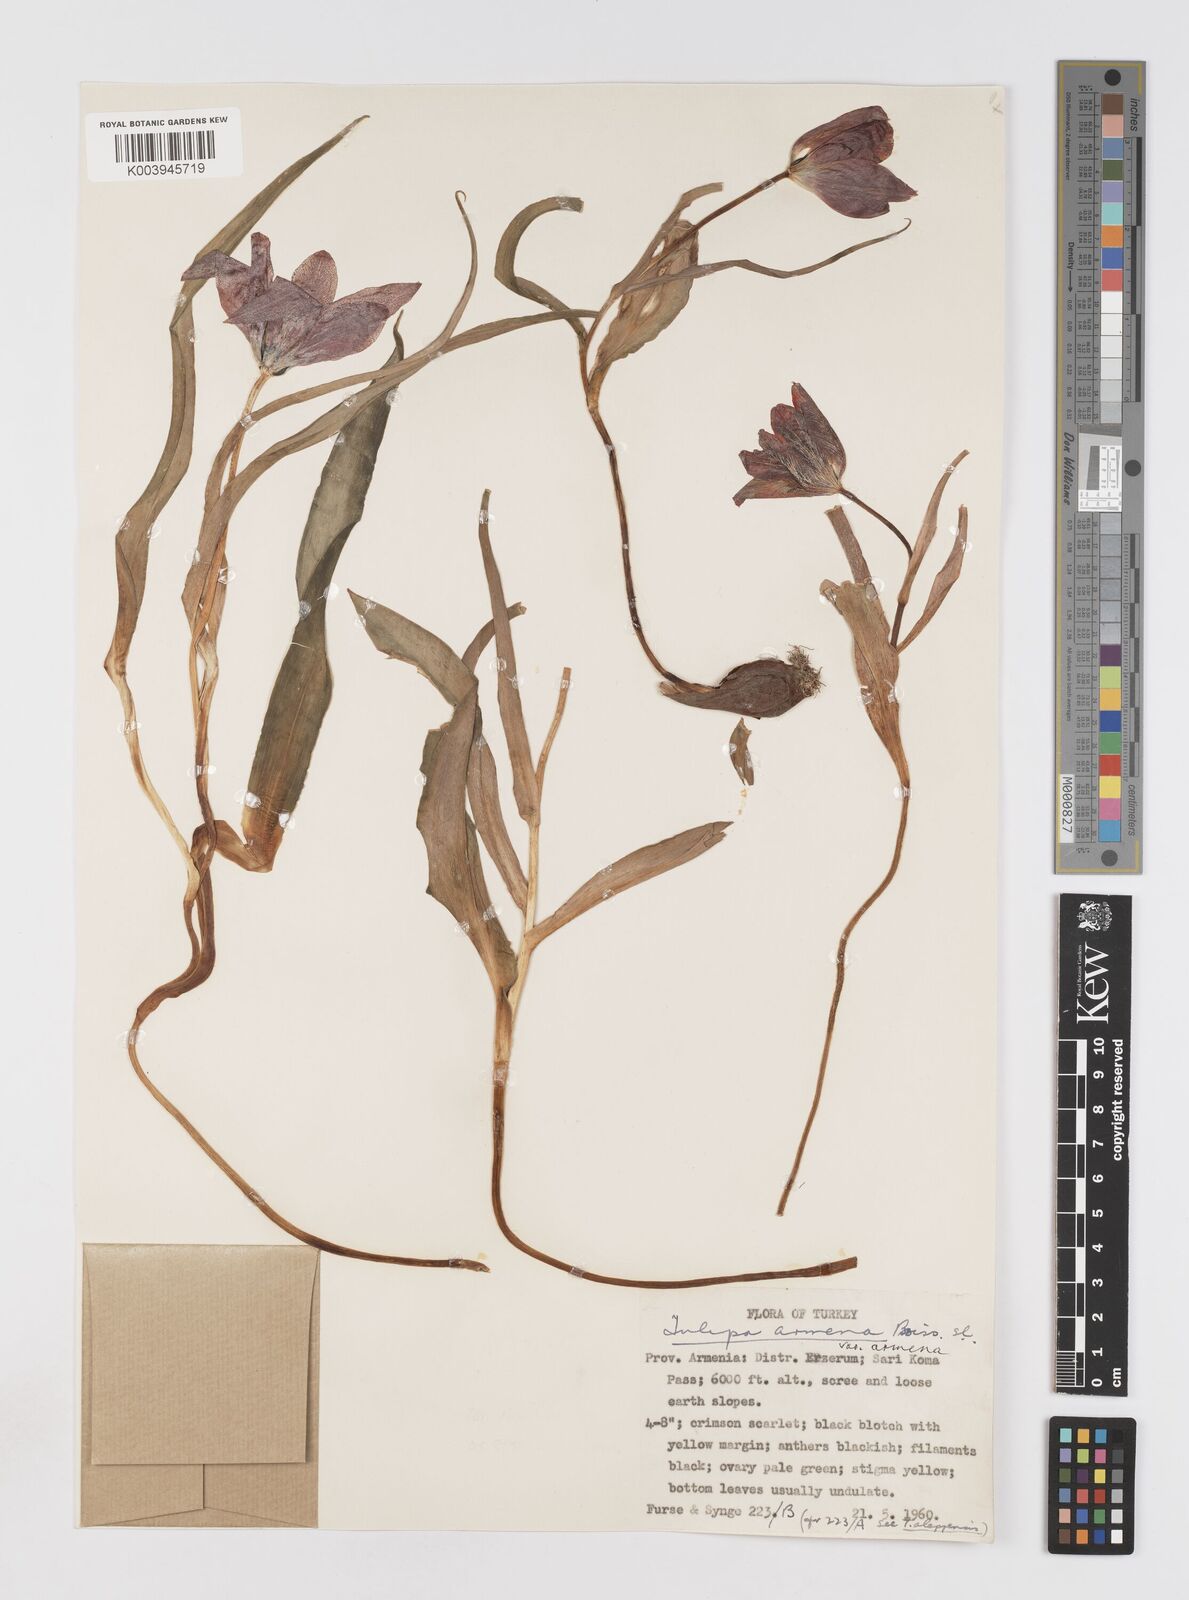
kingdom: Plantae
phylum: Tracheophyta
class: Liliopsida
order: Liliales
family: Liliaceae
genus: Tulipa
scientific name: Tulipa armena
